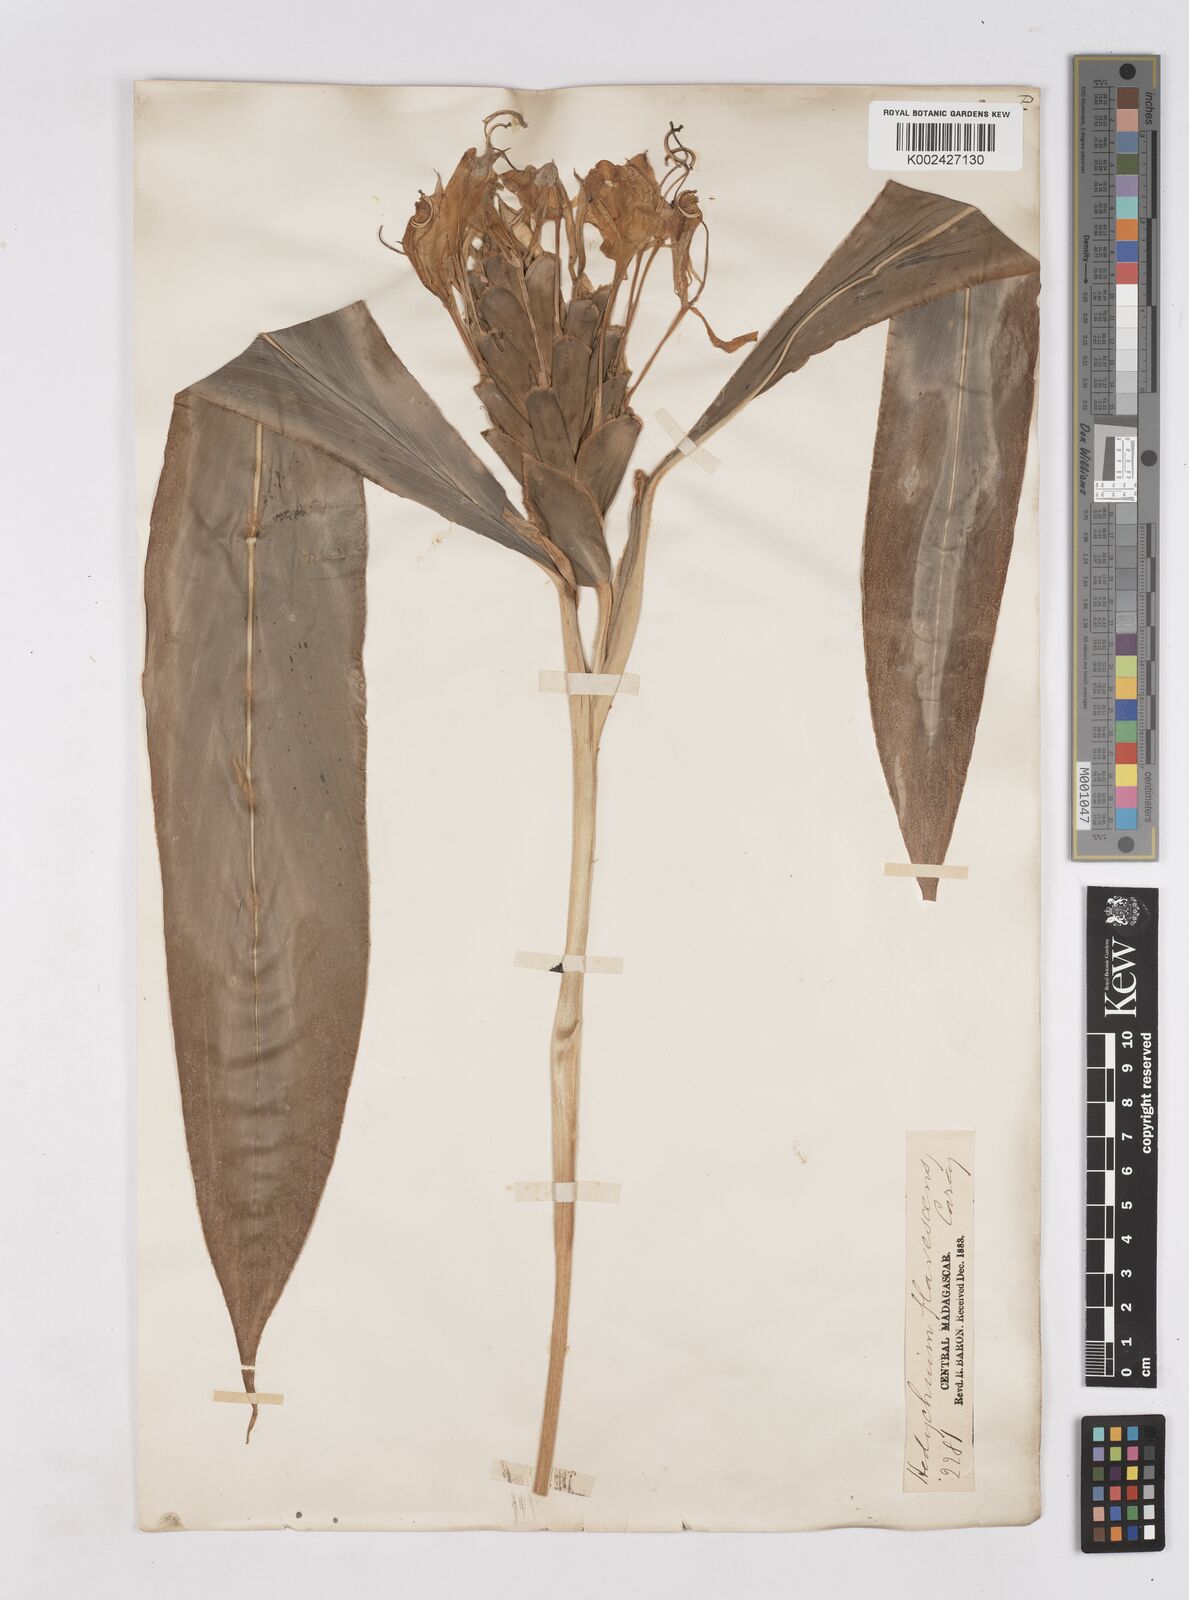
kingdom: Plantae
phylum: Tracheophyta
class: Liliopsida
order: Zingiberales
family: Zingiberaceae
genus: Hedychium
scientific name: Hedychium coronarium
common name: White garland-lily
